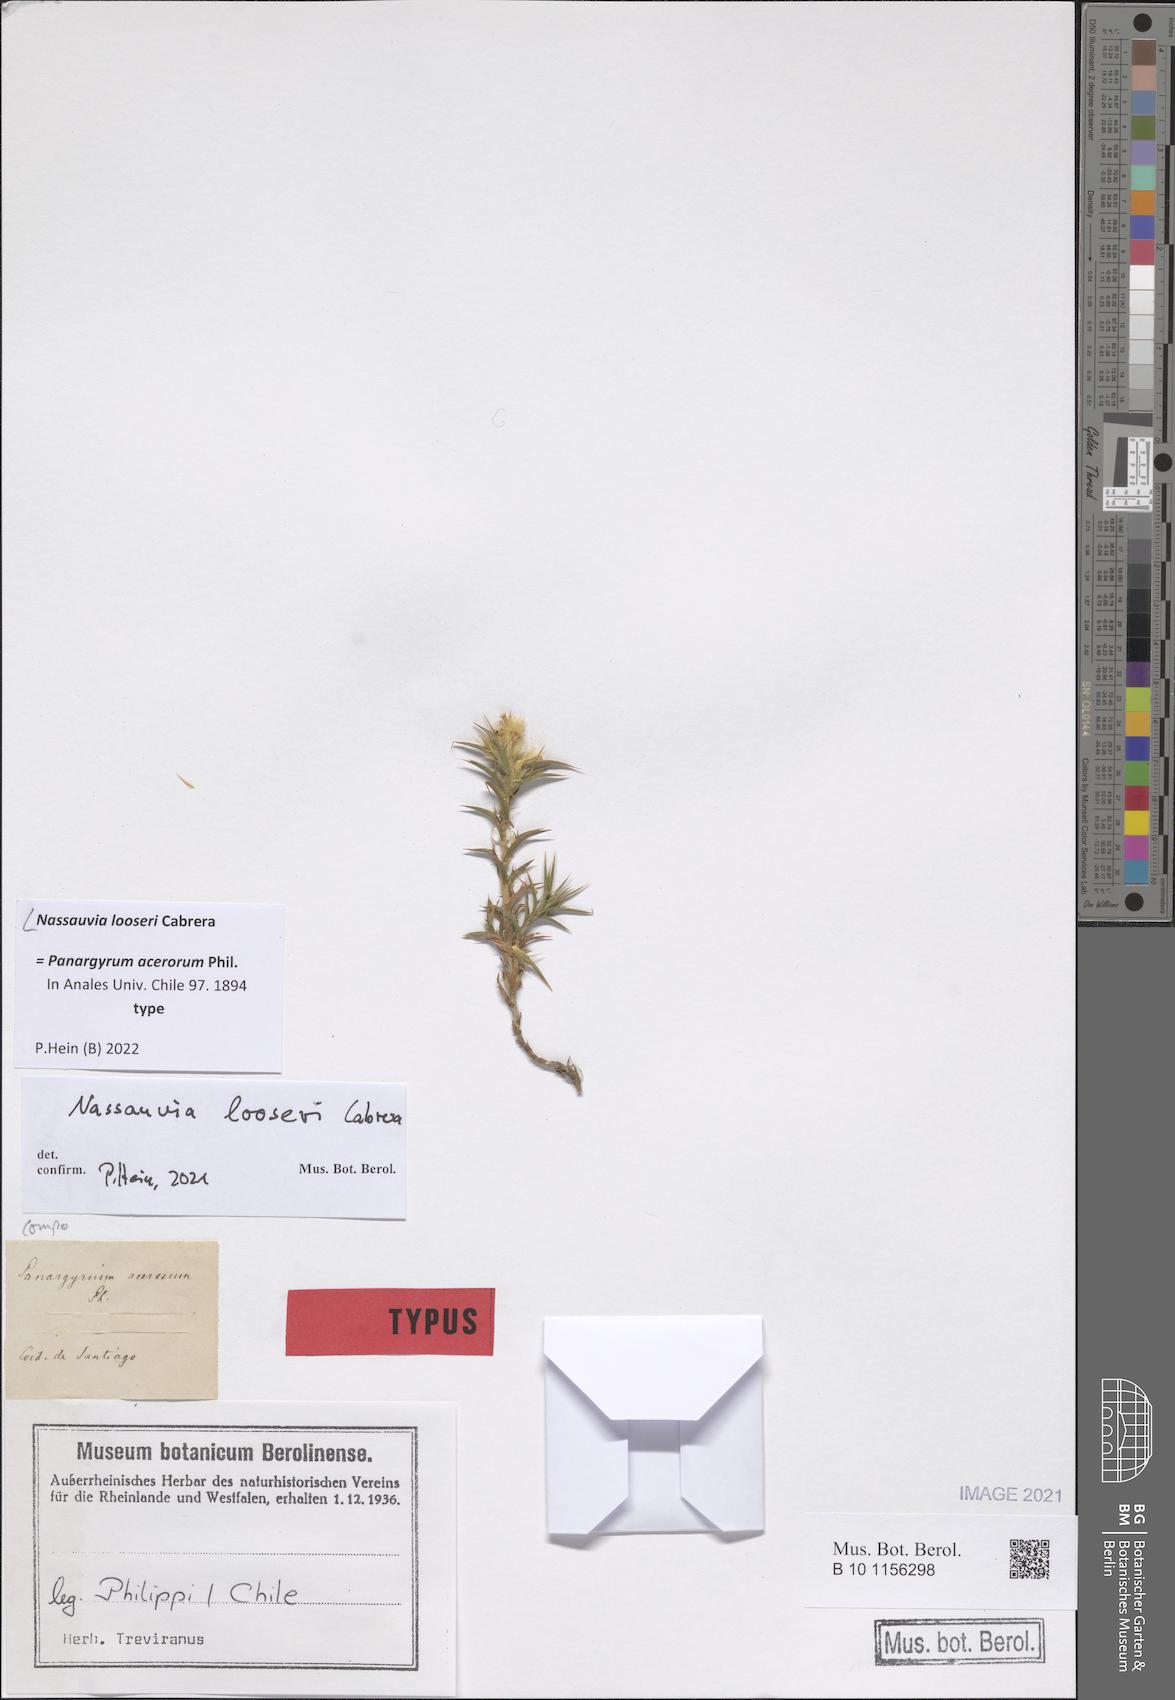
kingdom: Plantae
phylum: Tracheophyta
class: Magnoliopsida
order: Asterales
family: Asteraceae
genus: Nassauvia
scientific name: Nassauvia looseri
